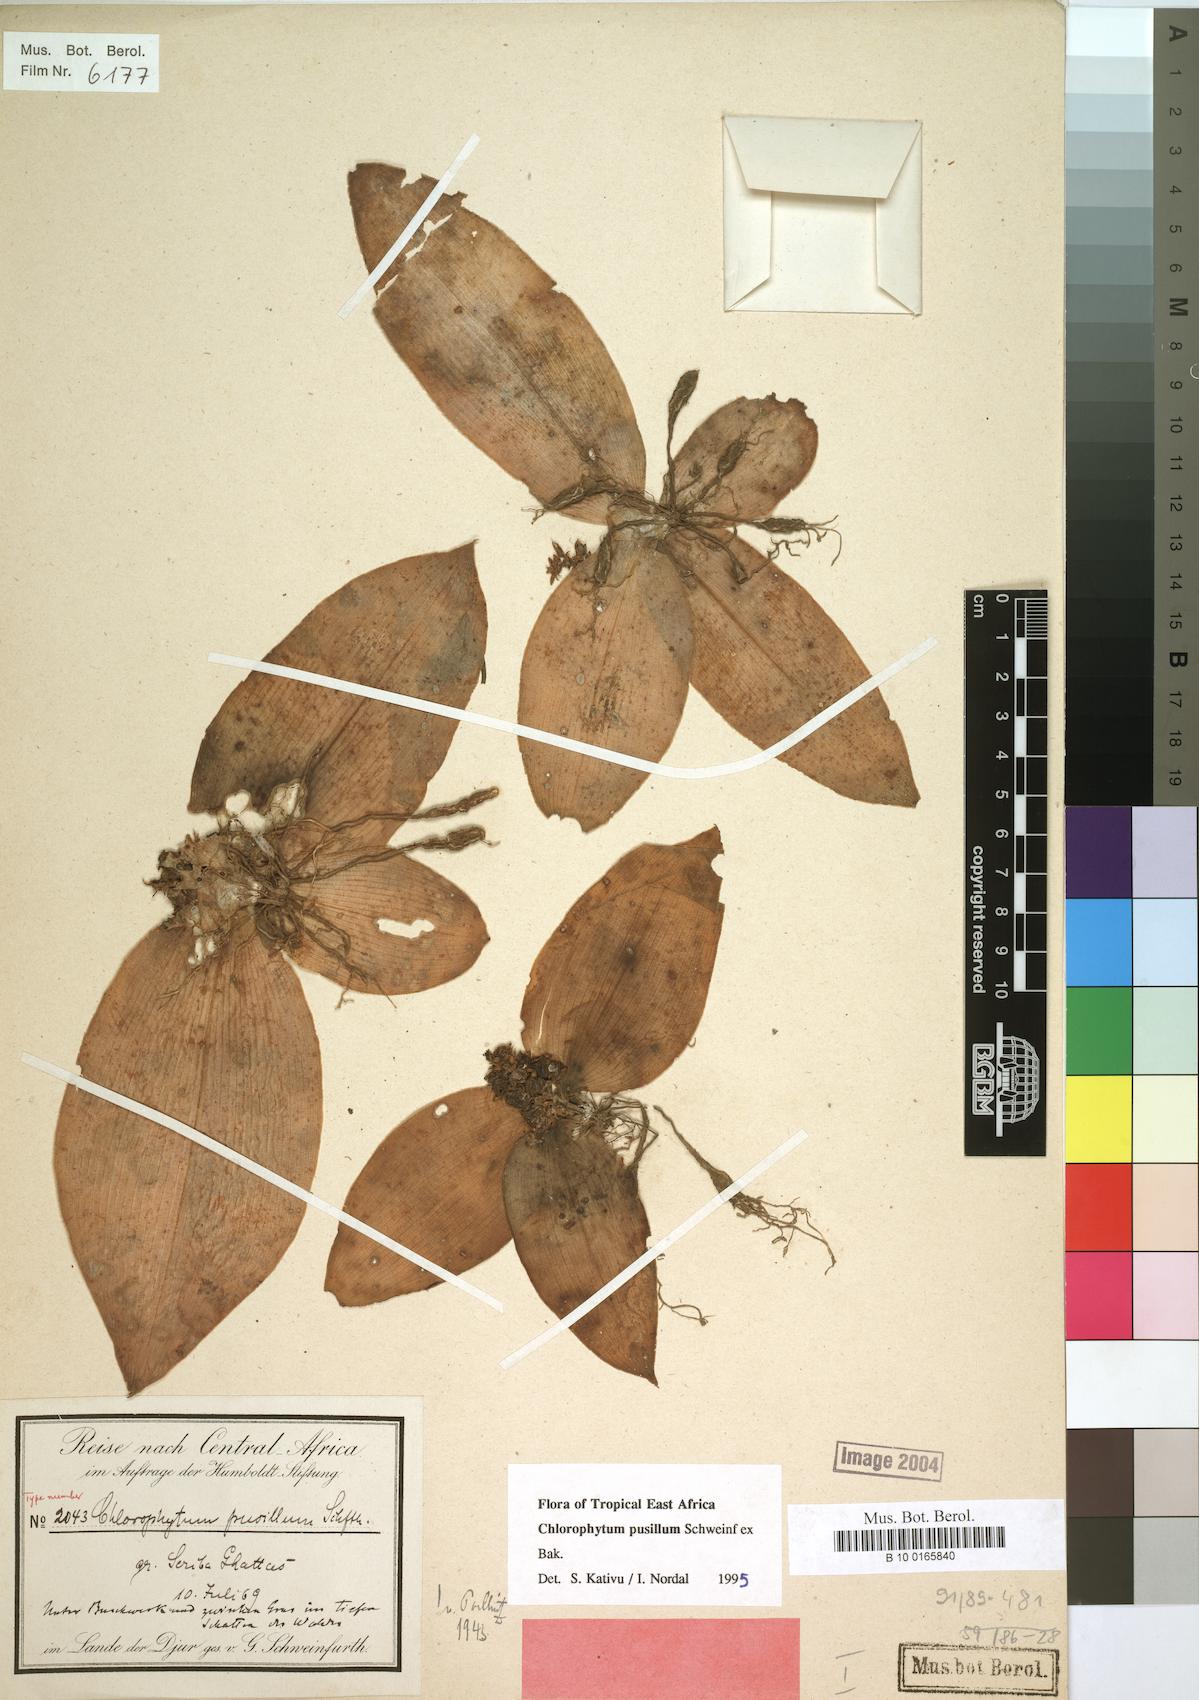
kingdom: Plantae
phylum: Tracheophyta
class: Liliopsida
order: Asparagales
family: Asparagaceae
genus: Chlorophytum
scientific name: Chlorophytum pusillum
